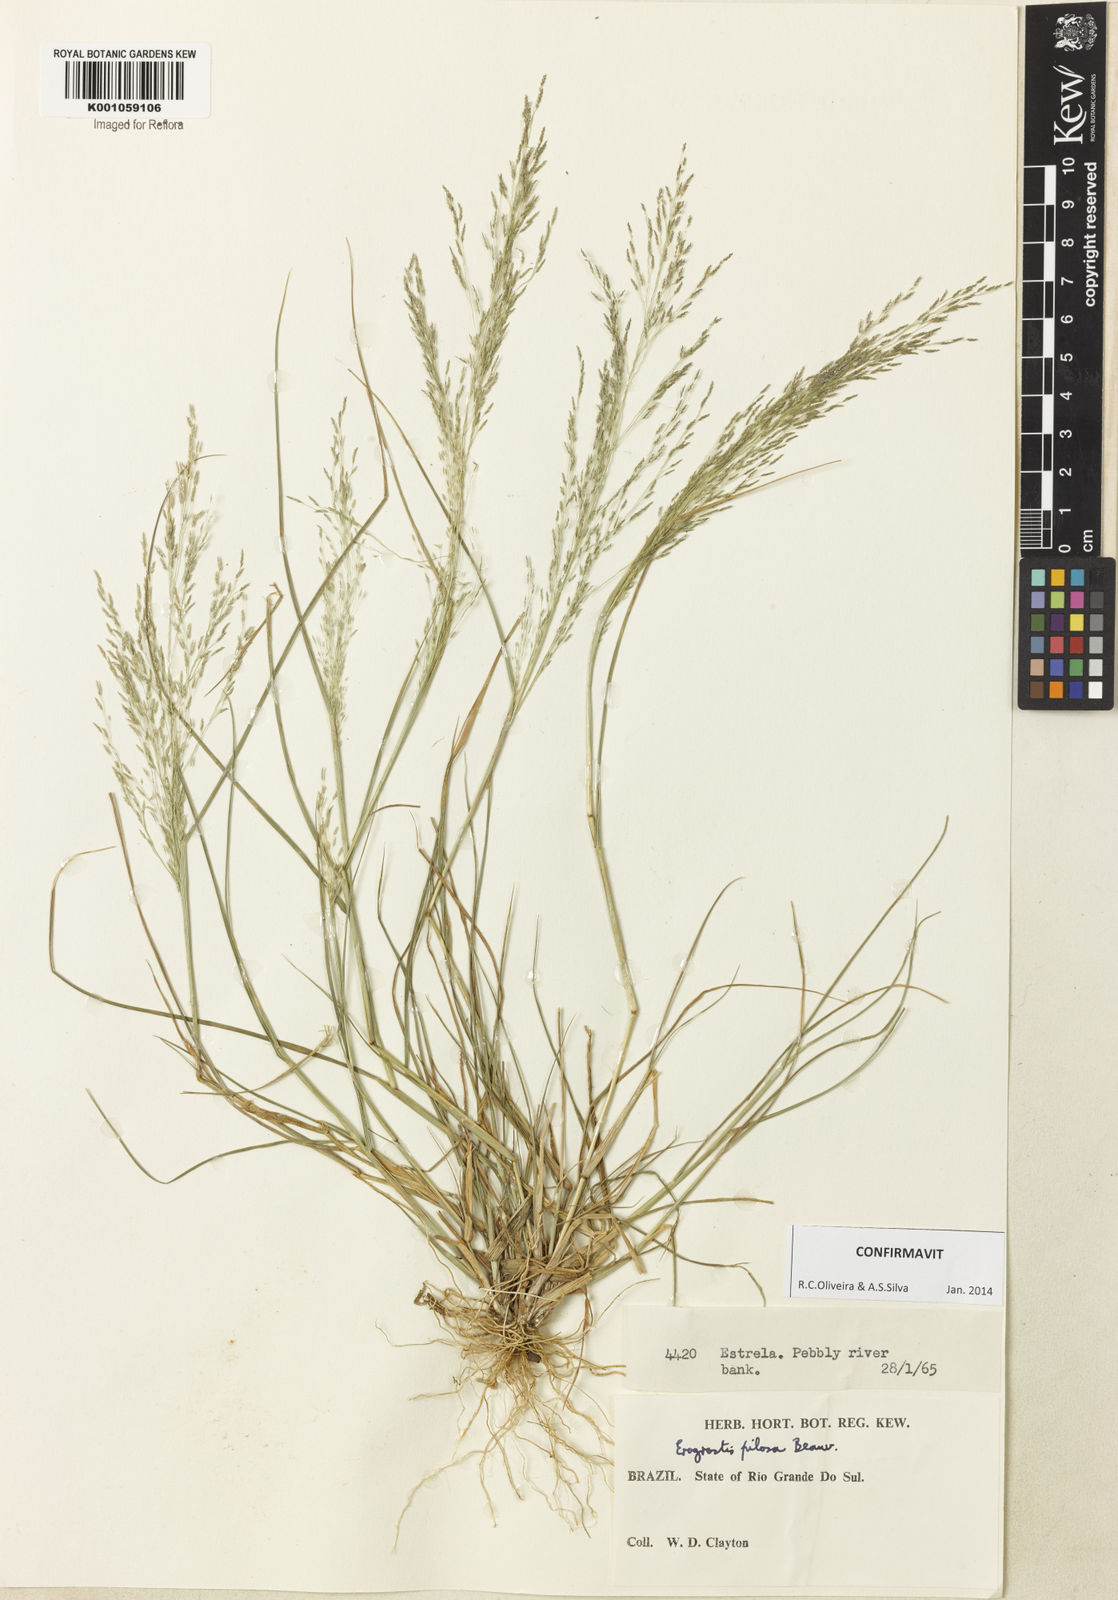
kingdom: Plantae
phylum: Tracheophyta
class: Liliopsida
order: Poales
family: Poaceae
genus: Eragrostis
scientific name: Eragrostis pilosa
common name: Indian lovegrass
